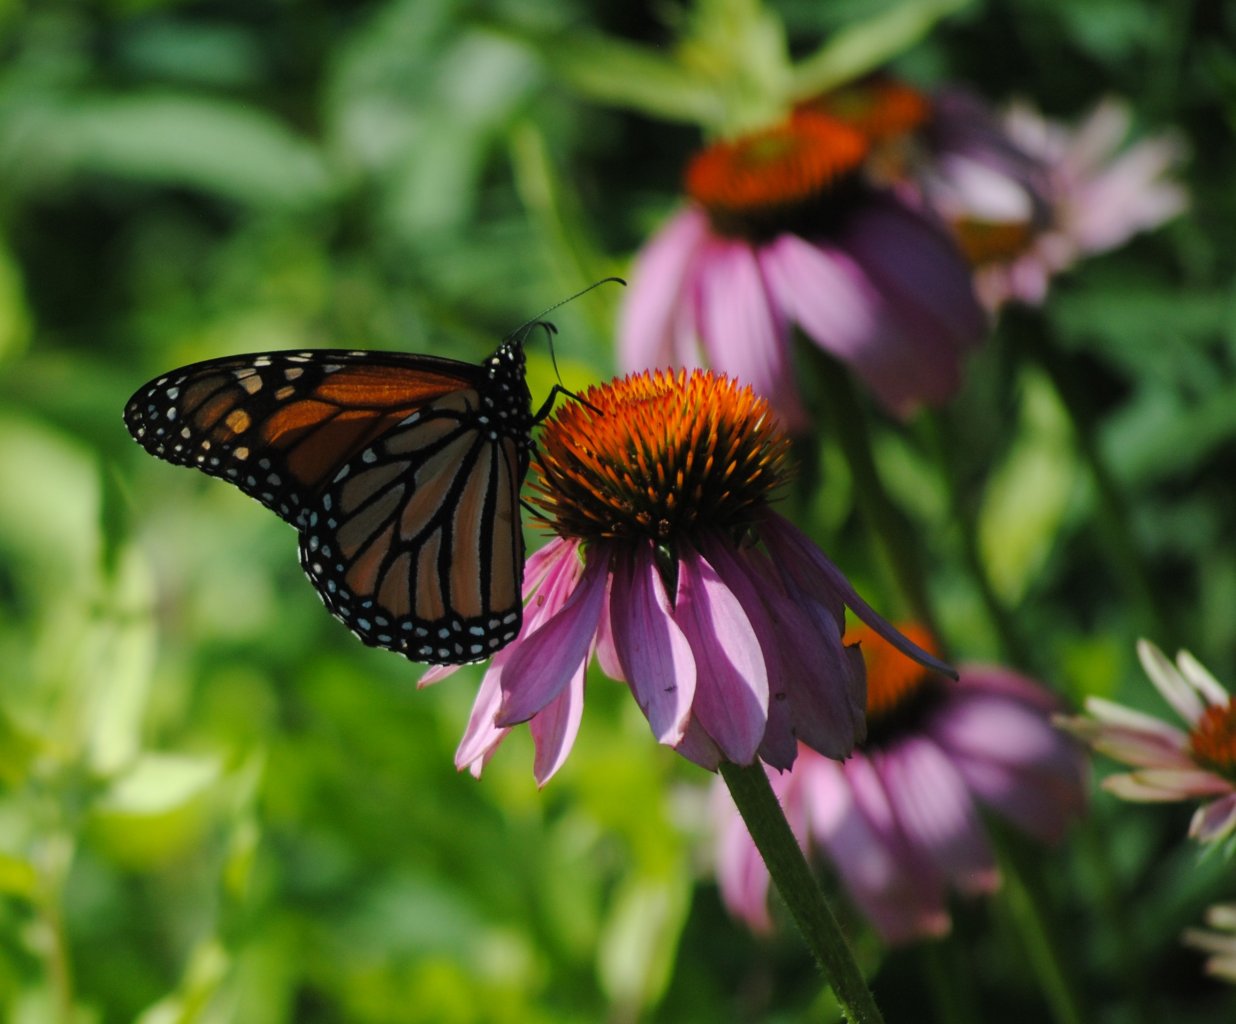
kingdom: Animalia
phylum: Arthropoda
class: Insecta
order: Lepidoptera
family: Nymphalidae
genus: Danaus
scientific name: Danaus plexippus
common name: Monarch
